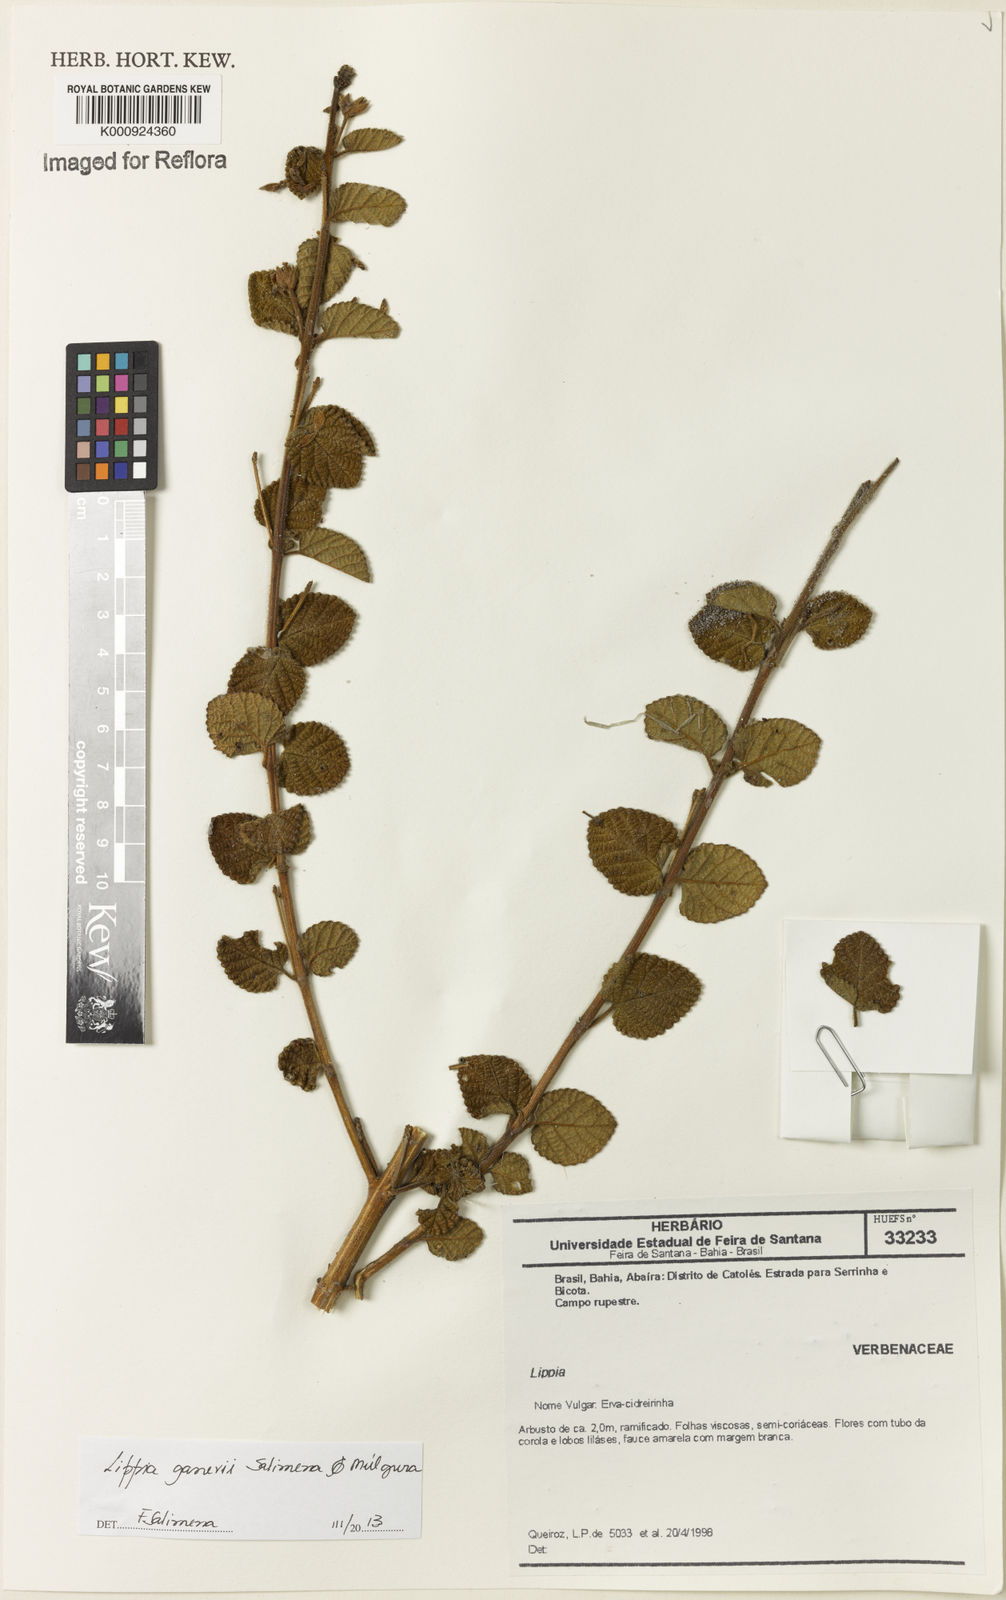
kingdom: Plantae
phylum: Tracheophyta
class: Magnoliopsida
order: Lamiales
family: Verbenaceae
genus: Lippia
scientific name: Lippia
